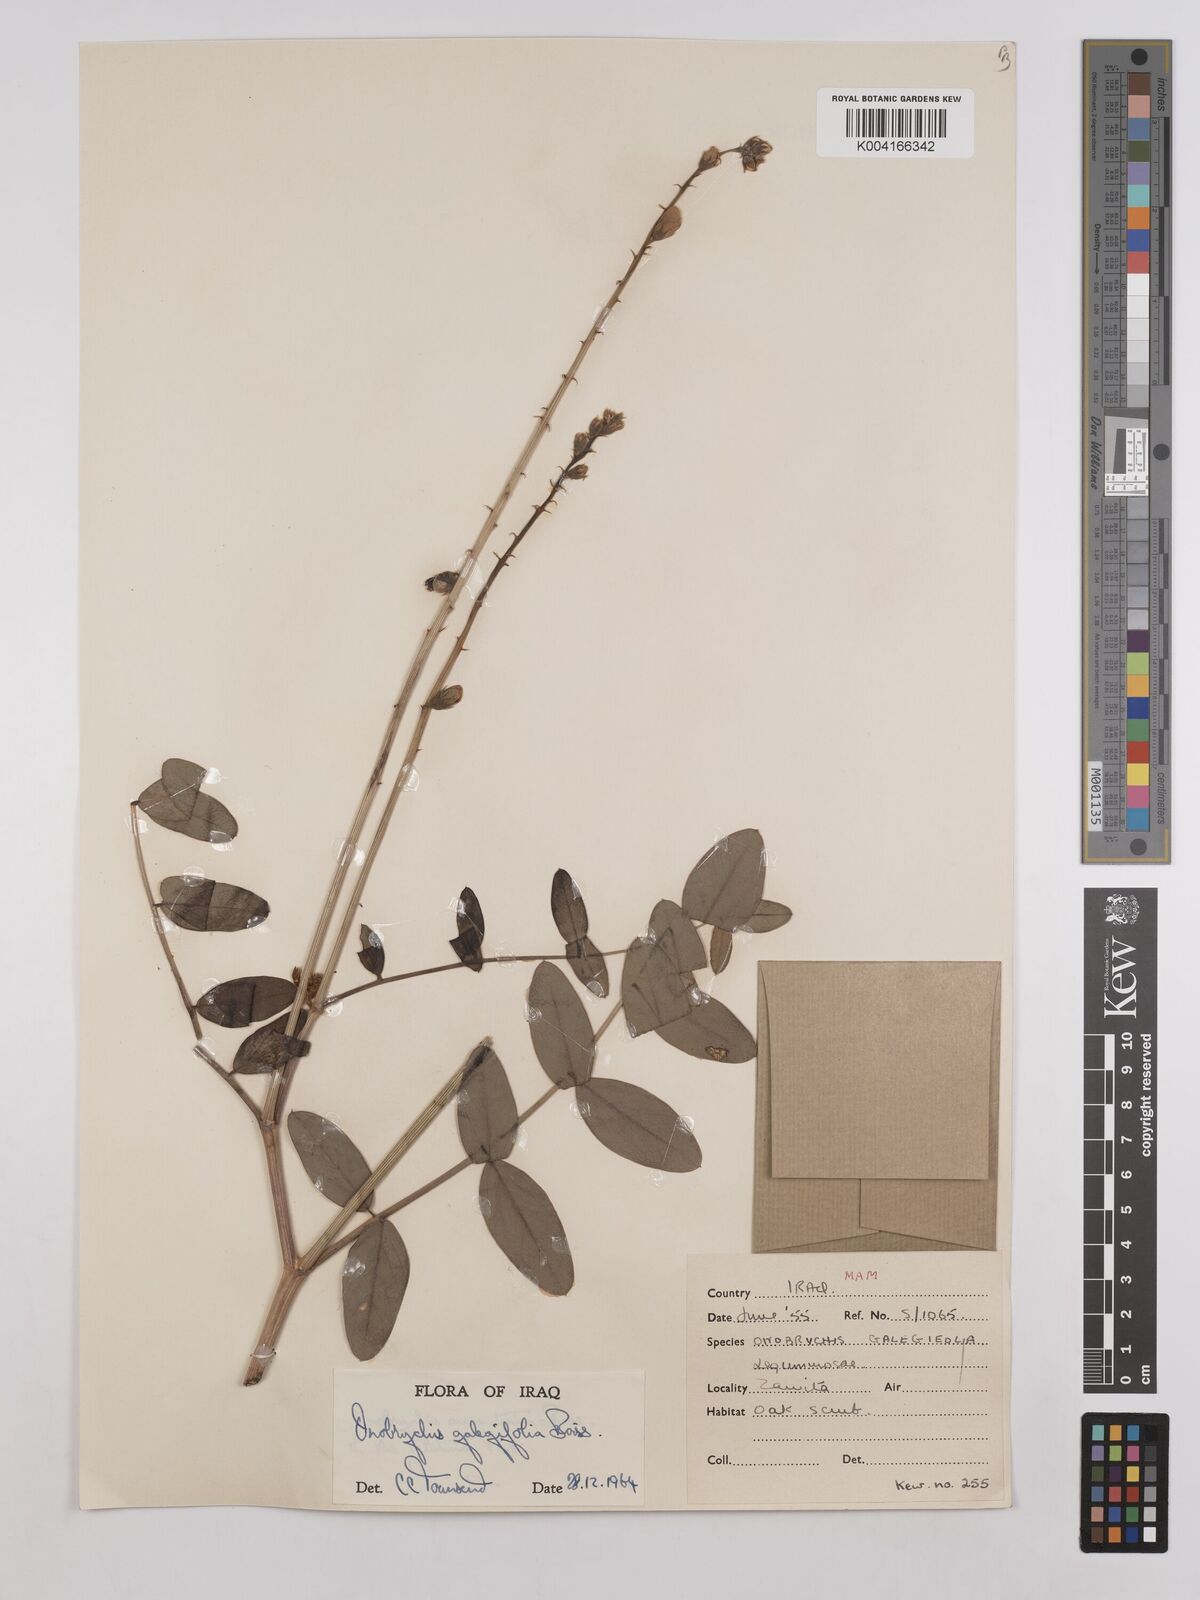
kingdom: Plantae
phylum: Tracheophyta
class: Magnoliopsida
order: Fabales
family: Fabaceae
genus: Onobrychis
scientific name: Onobrychis galegifolia
